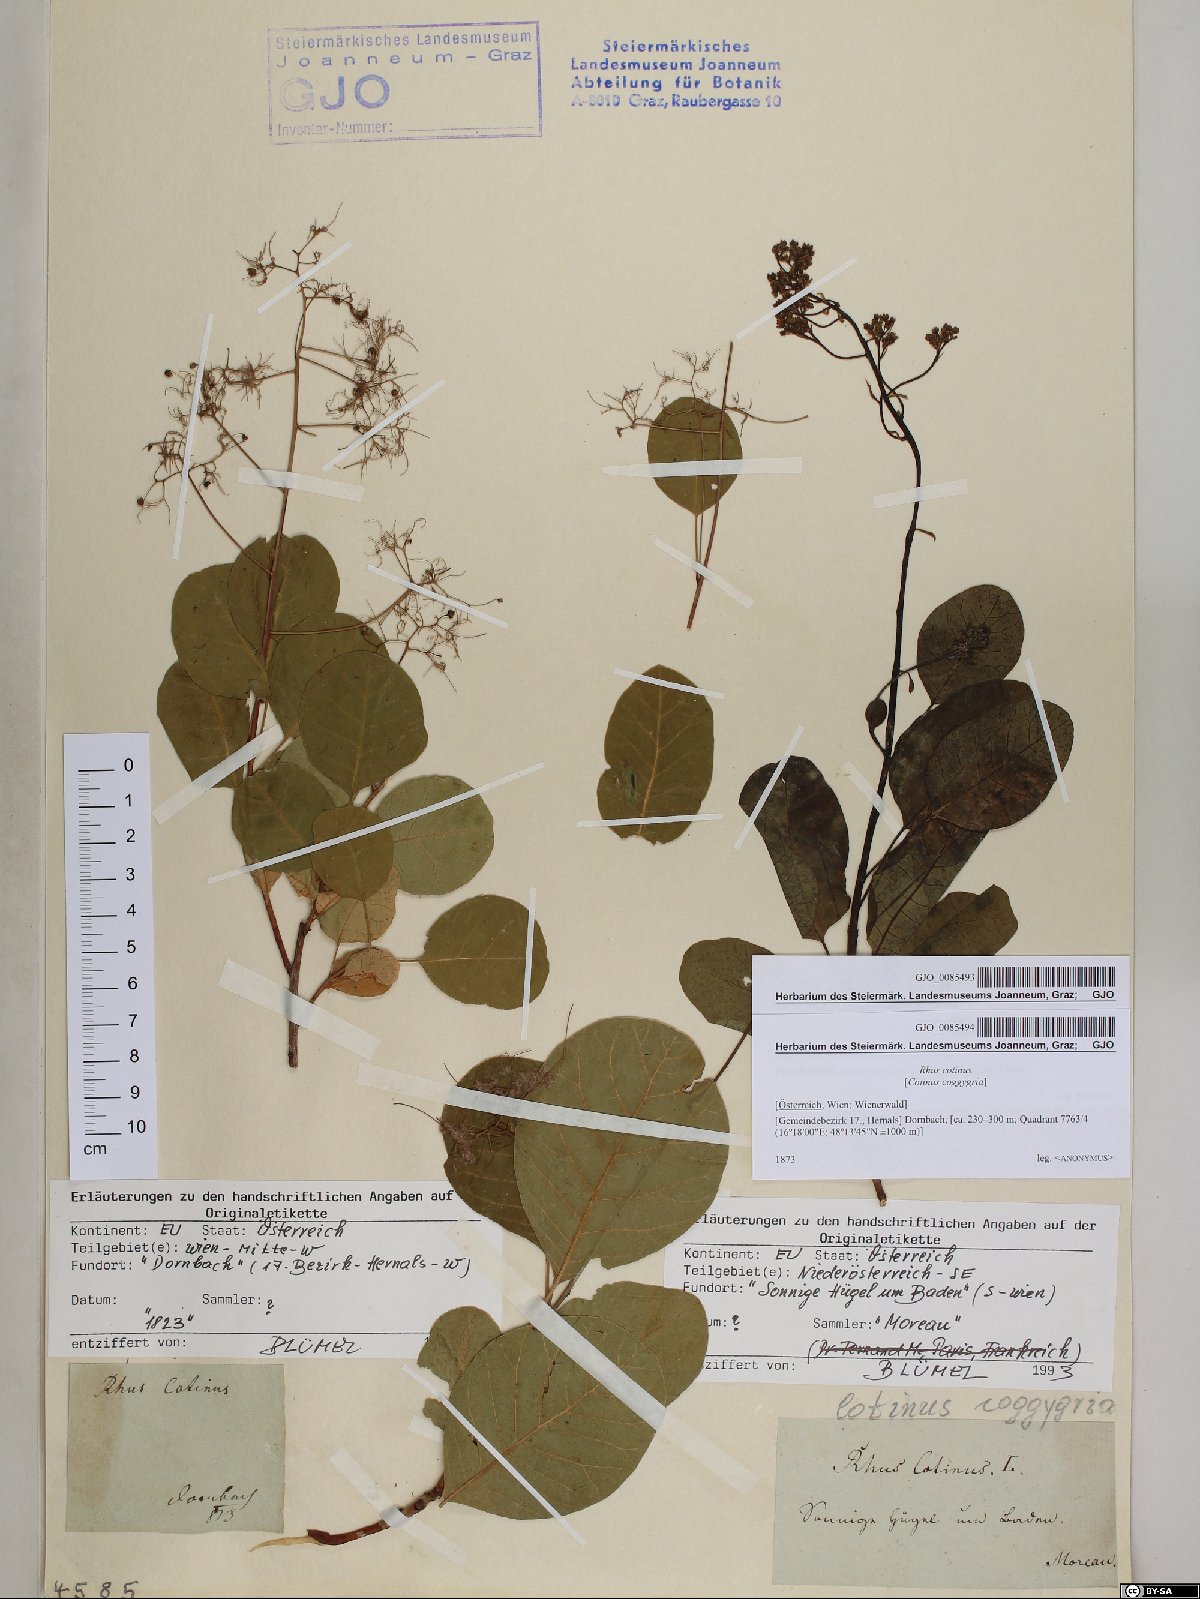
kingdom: Plantae
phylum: Tracheophyta
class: Magnoliopsida
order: Sapindales
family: Anacardiaceae
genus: Cotinus
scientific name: Cotinus coggygria
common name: Smoke-tree
